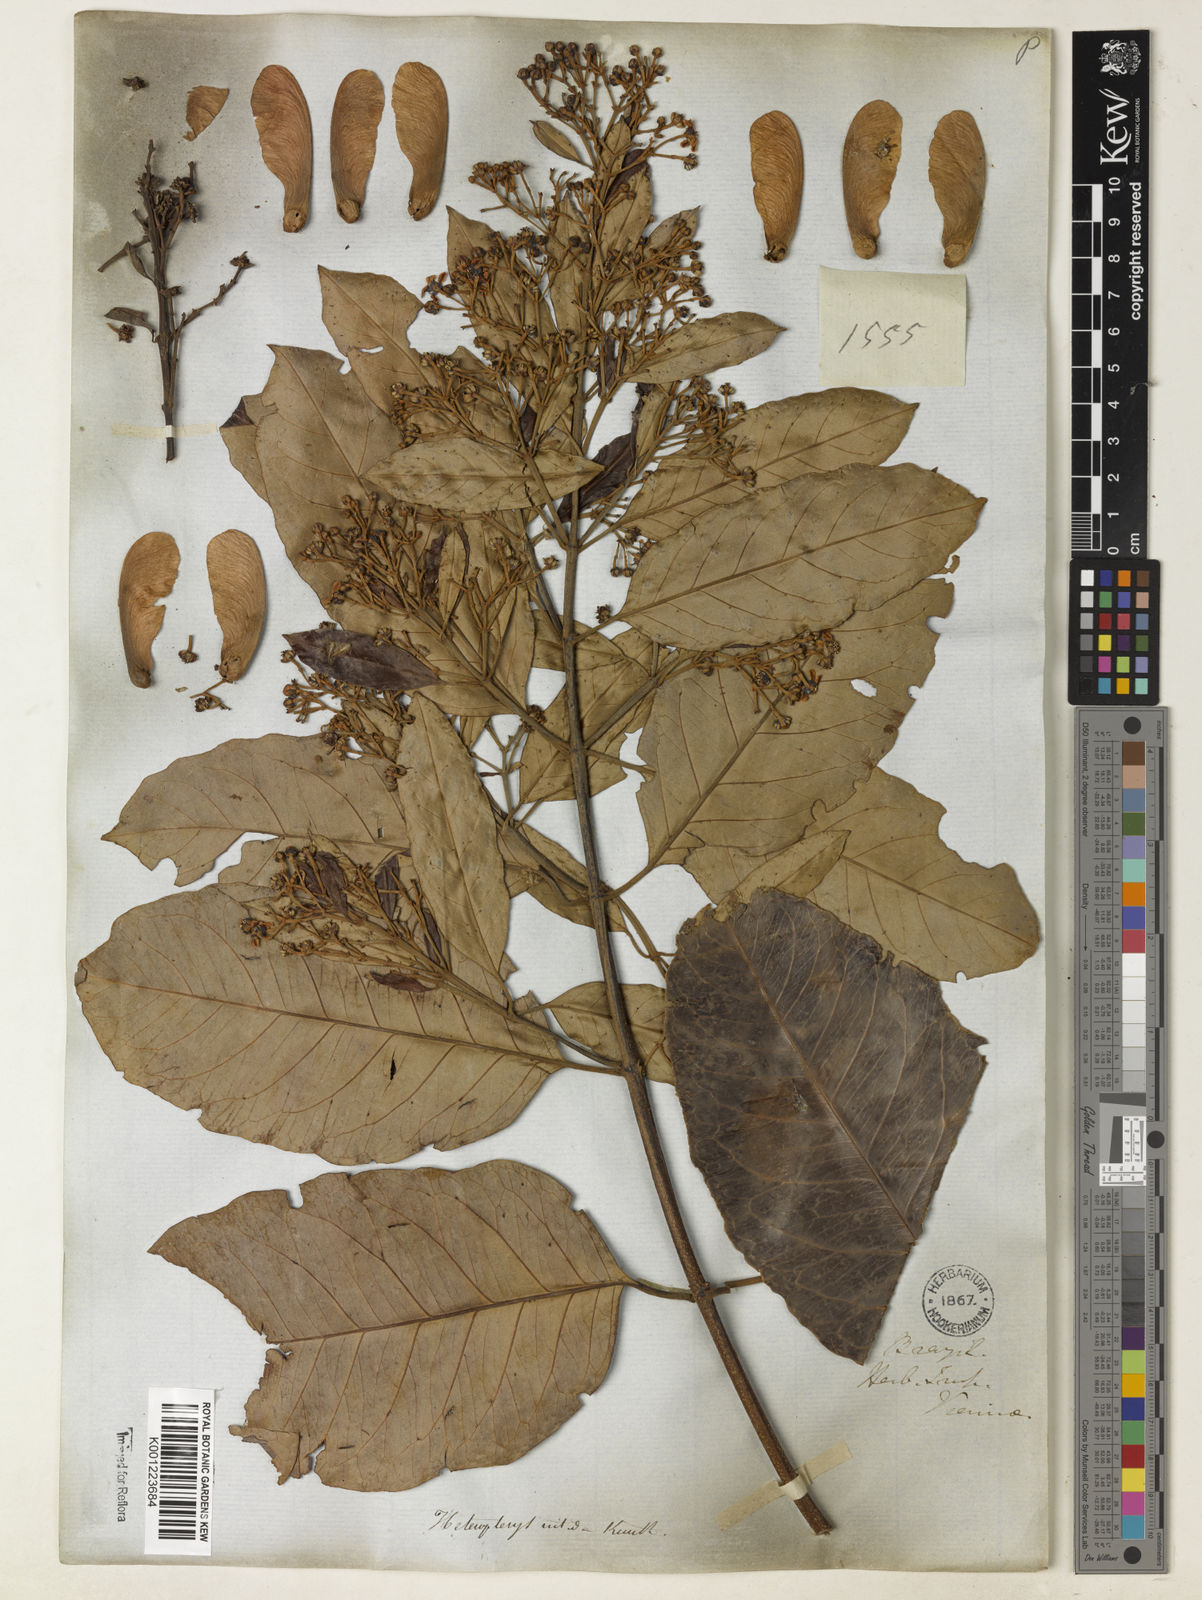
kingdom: Plantae
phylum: Tracheophyta
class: Magnoliopsida
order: Malpighiales
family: Malpighiaceae
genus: Heteropterys
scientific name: Heteropterys nitida
